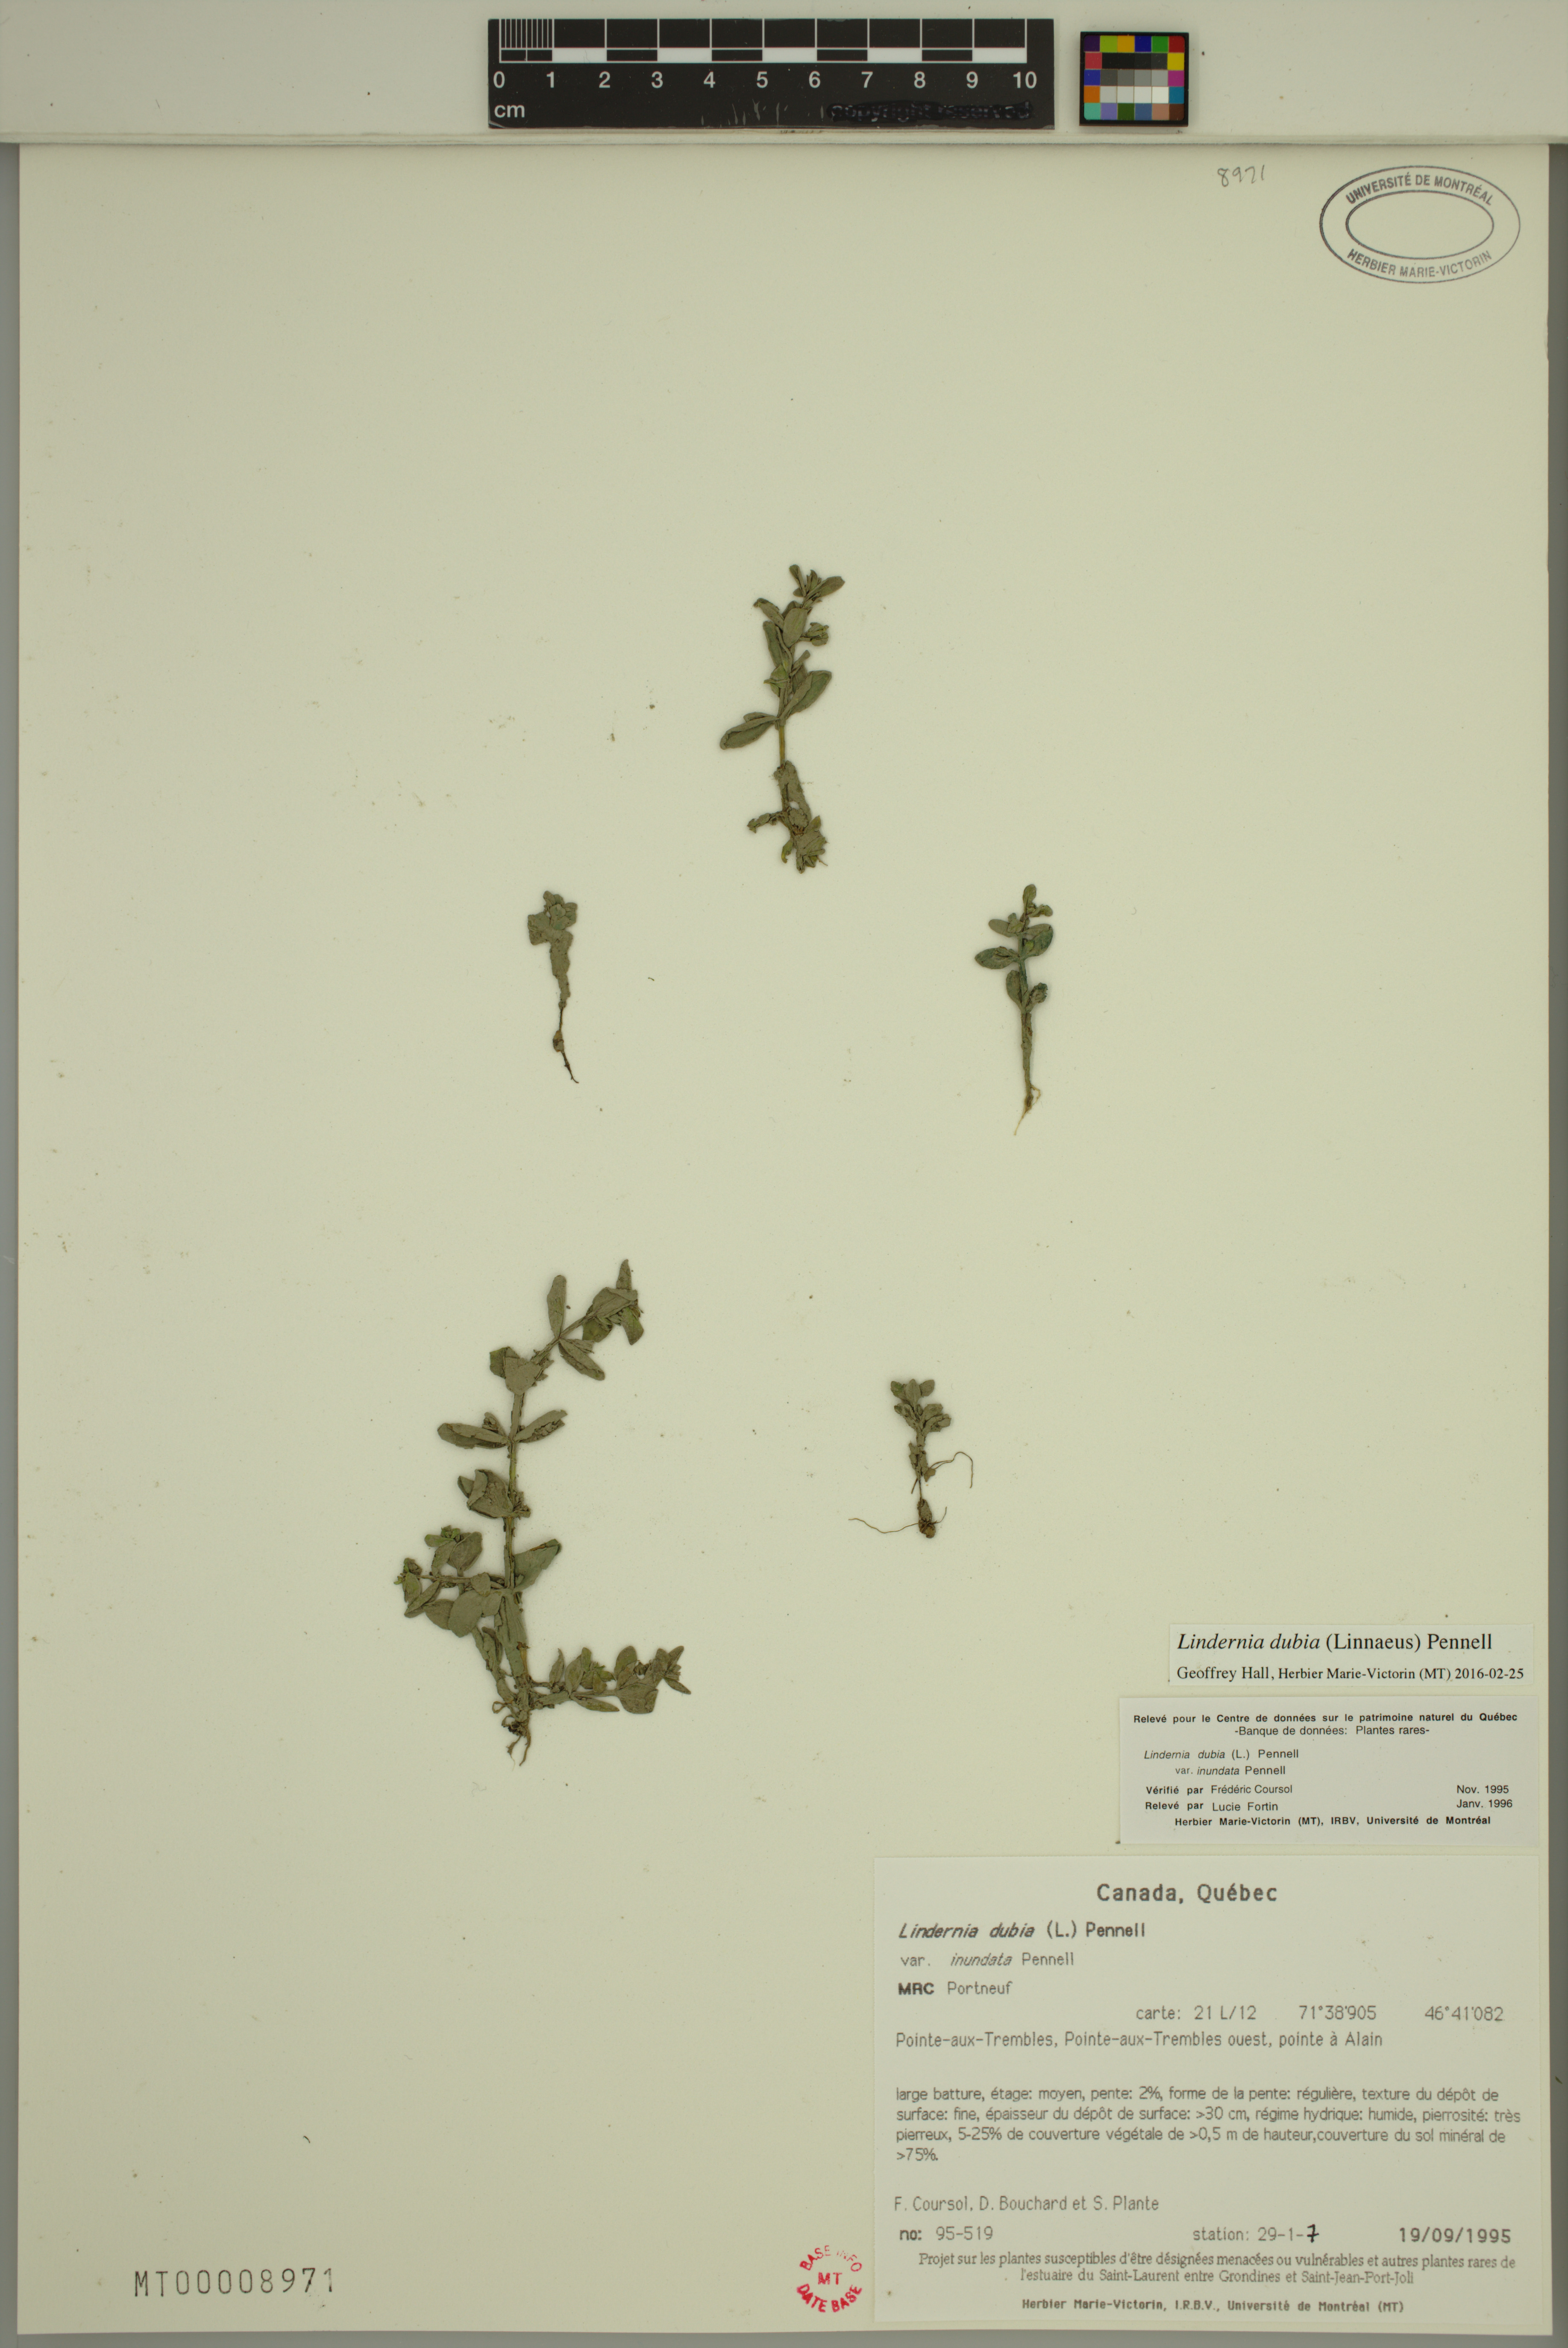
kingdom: Plantae
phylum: Tracheophyta
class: Magnoliopsida
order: Lamiales
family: Linderniaceae
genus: Lindernia
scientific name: Lindernia dubia
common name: Annual false pimpernel
